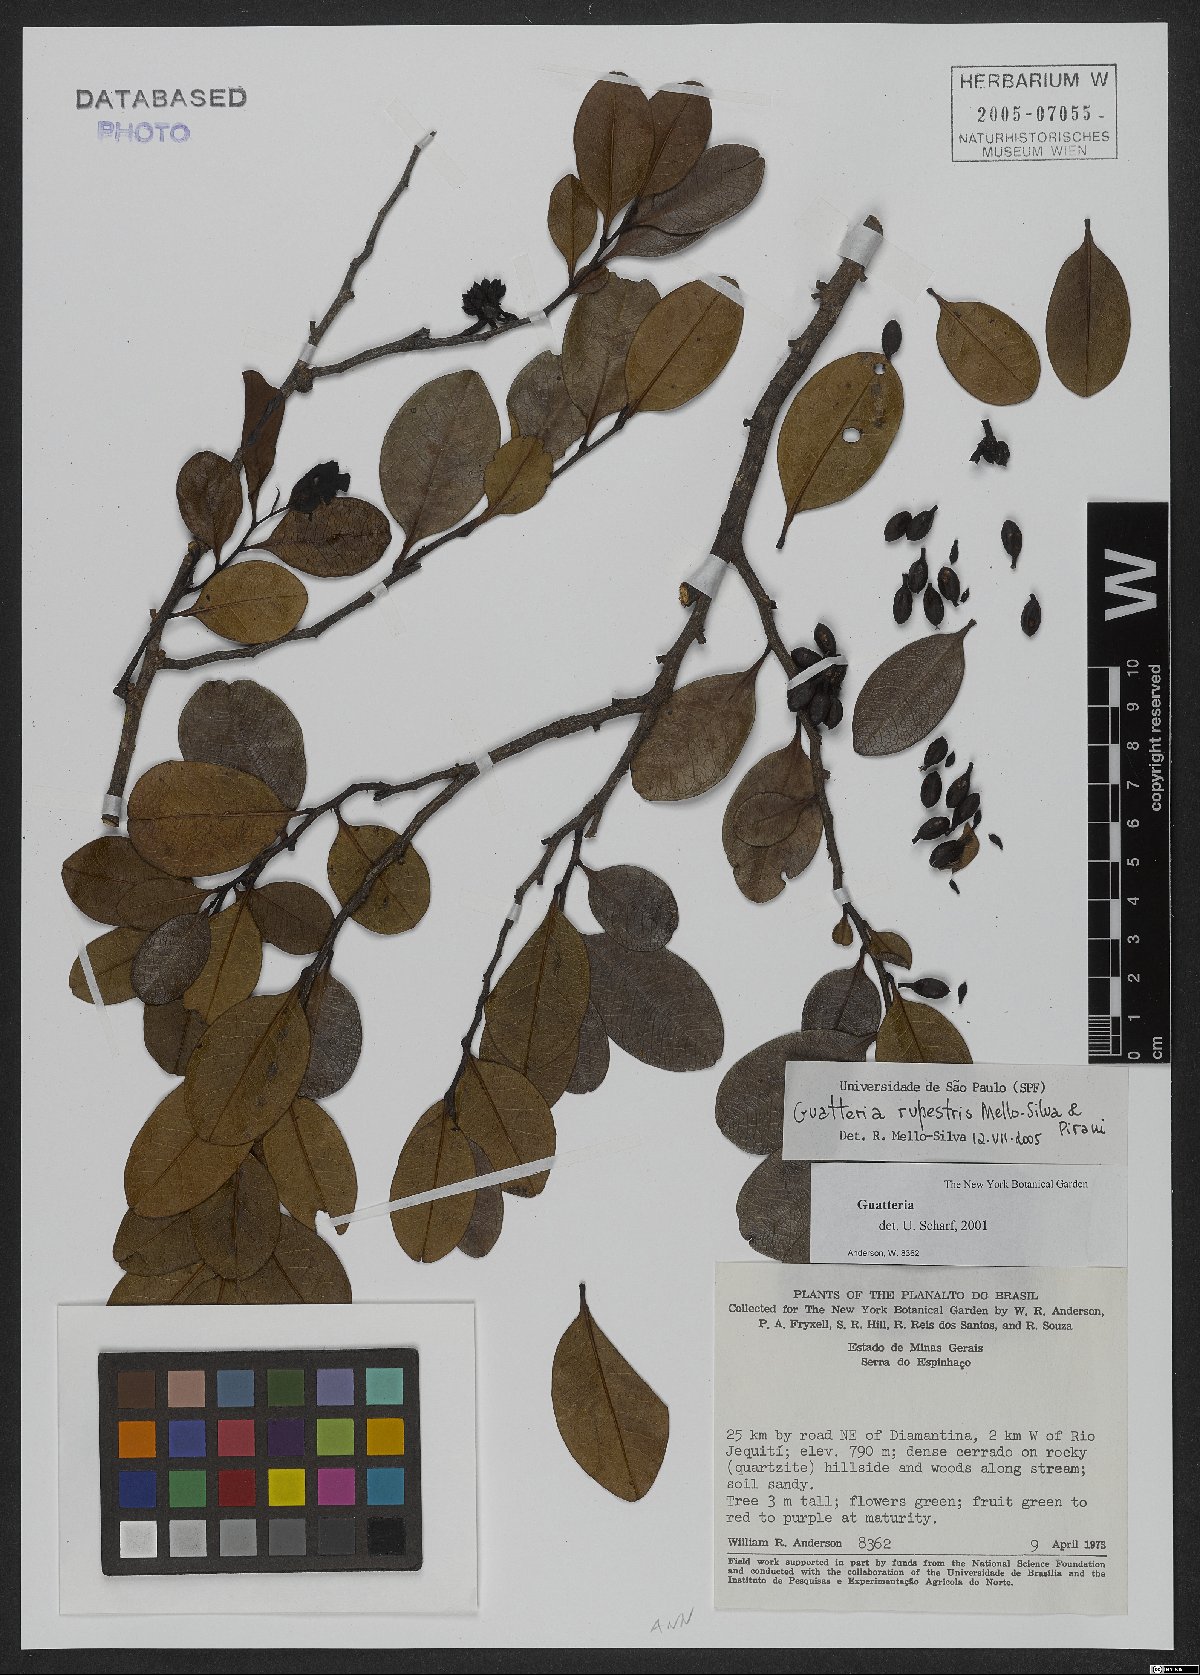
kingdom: Plantae
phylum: Tracheophyta
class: Magnoliopsida
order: Magnoliales
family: Annonaceae
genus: Guatteria
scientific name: Guatteria rupestris
